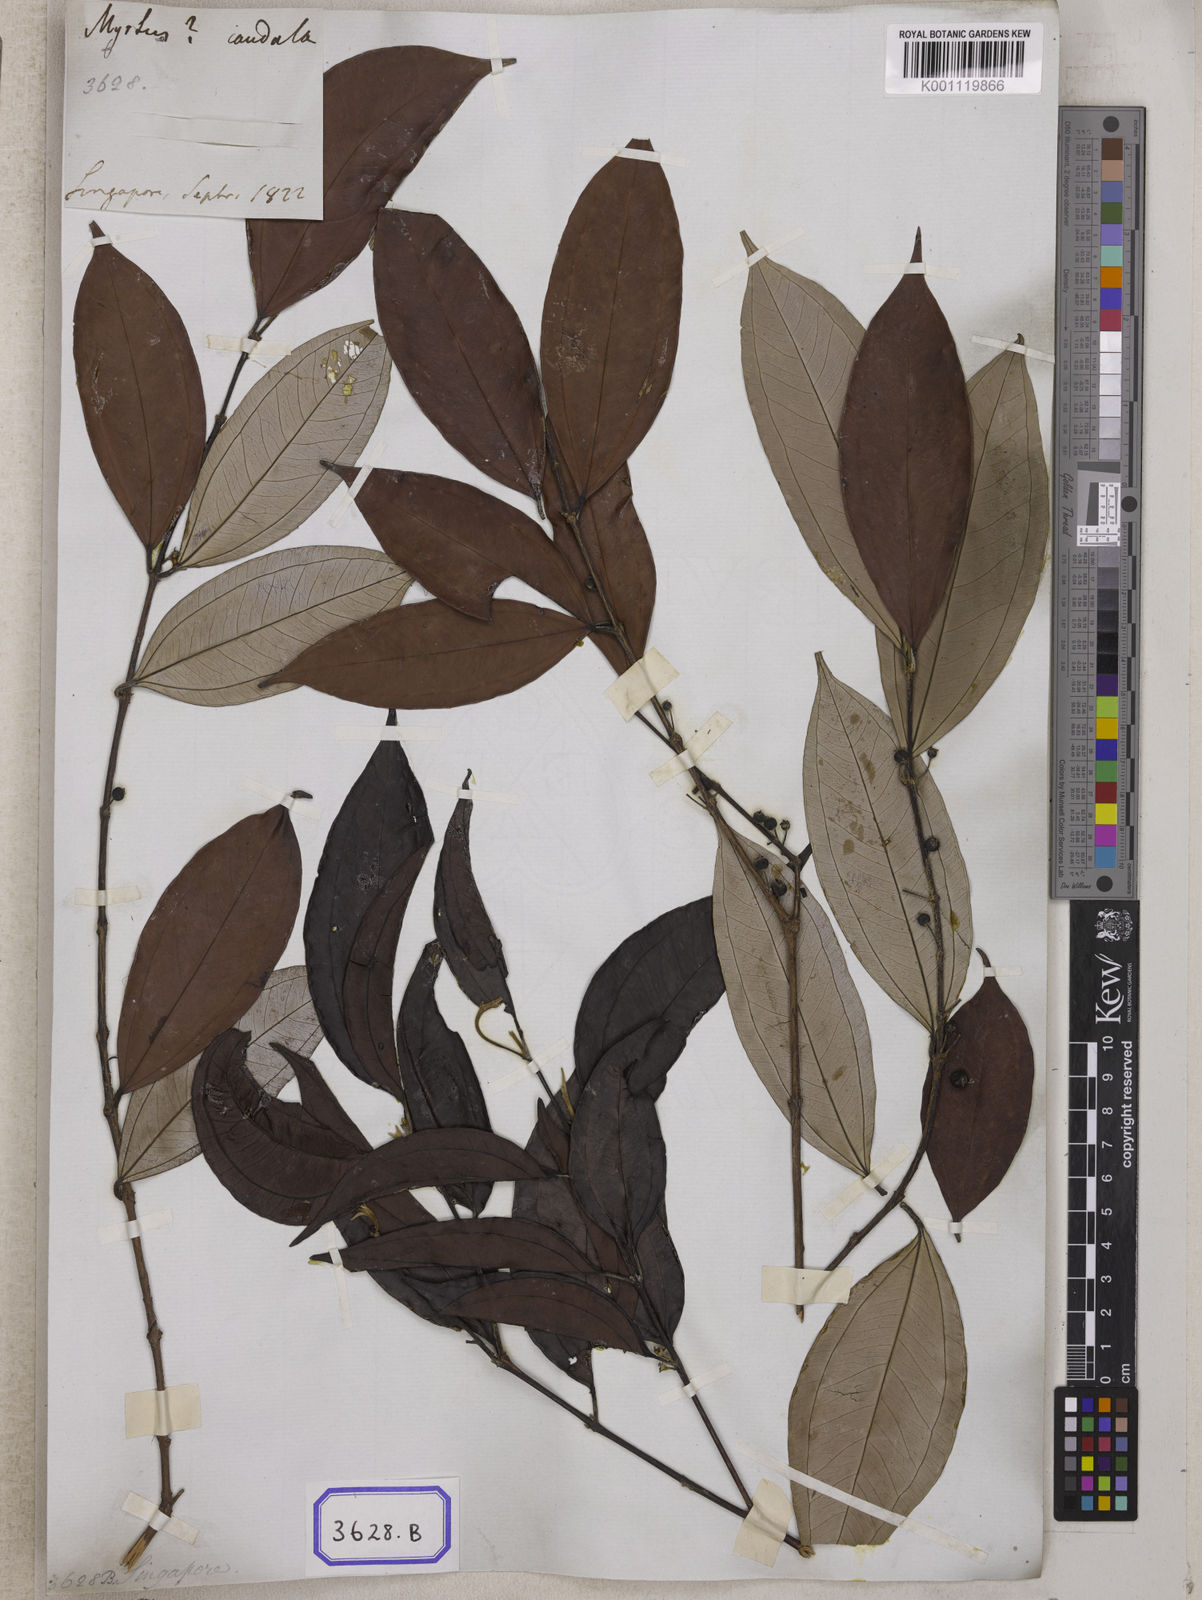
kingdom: Plantae
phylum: Tracheophyta
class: Magnoliopsida
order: Myrtales
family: Myrtaceae
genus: Rhodamnia
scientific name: Rhodamnia cinerea
